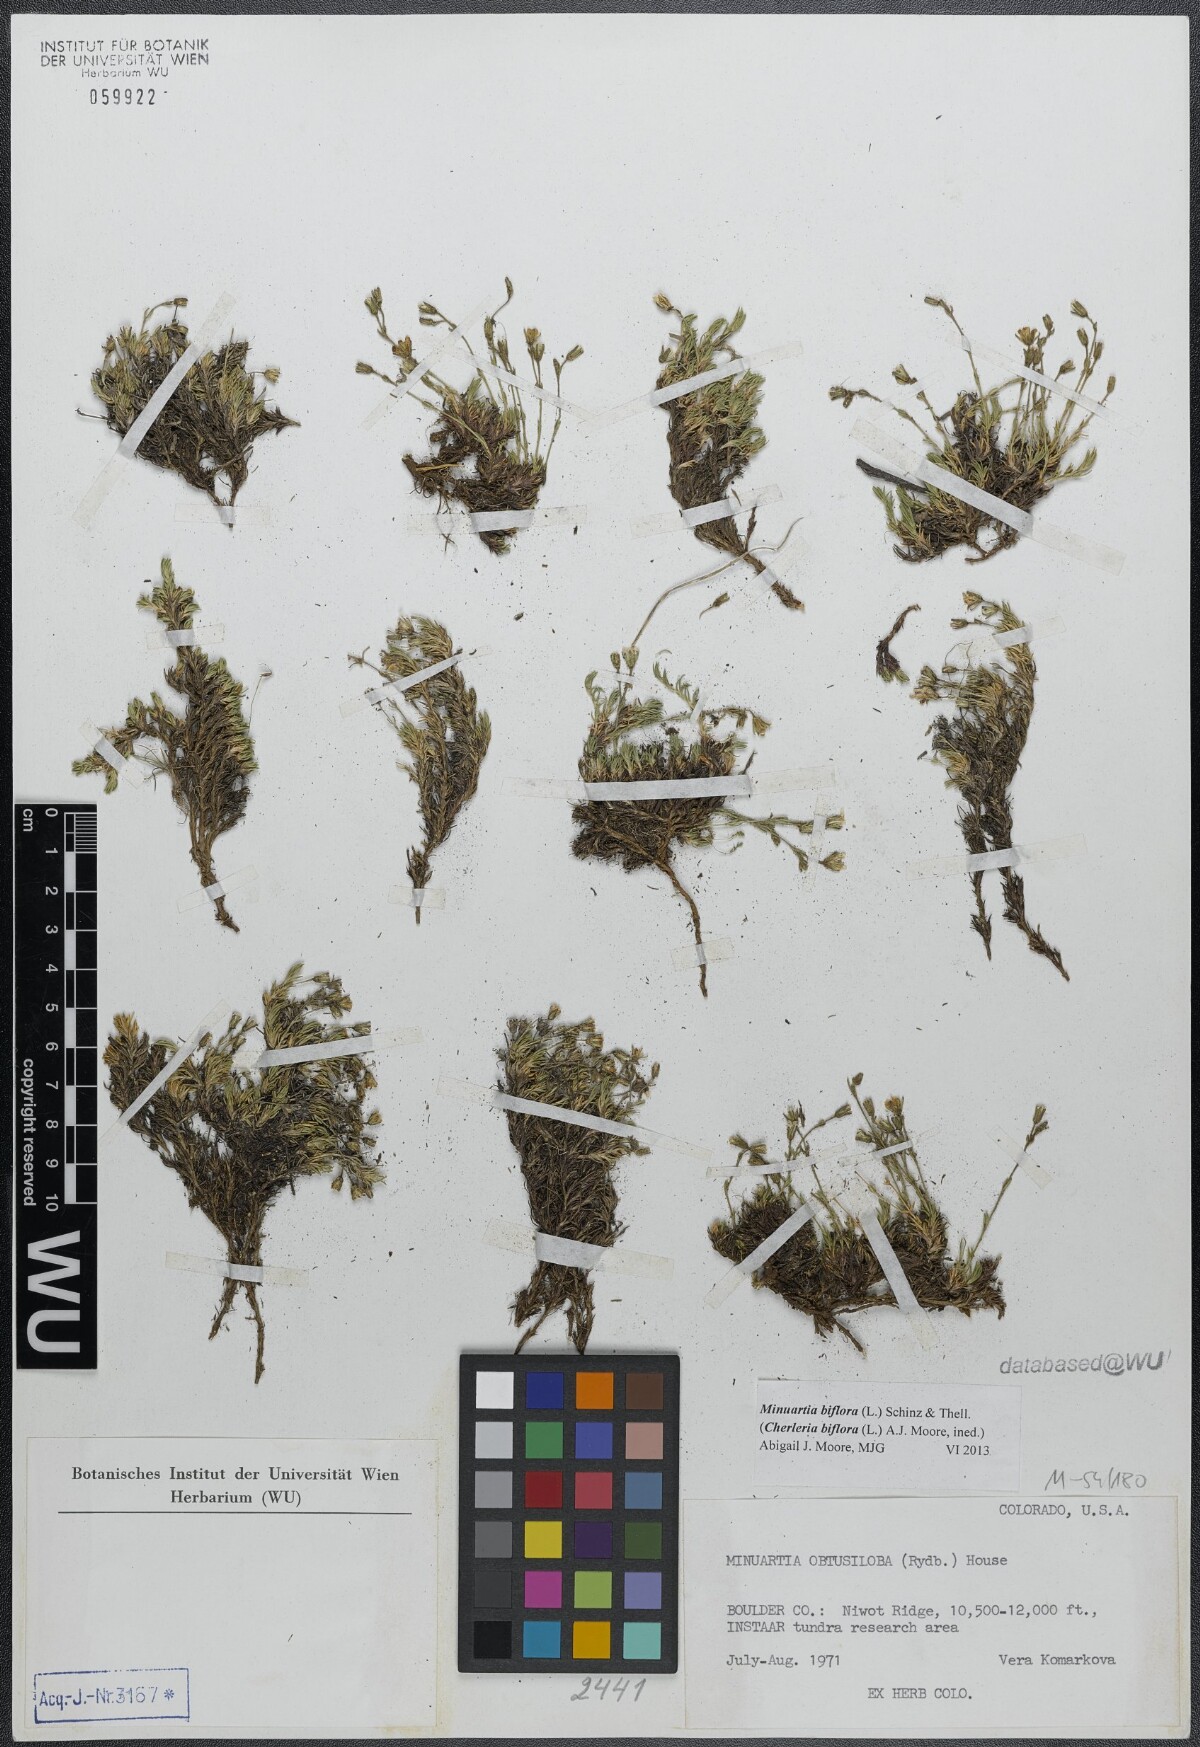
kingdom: Plantae
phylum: Tracheophyta
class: Magnoliopsida
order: Caryophyllales
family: Caryophyllaceae
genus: Cherleria
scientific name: Cherleria biflora
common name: Mountain sandwort
